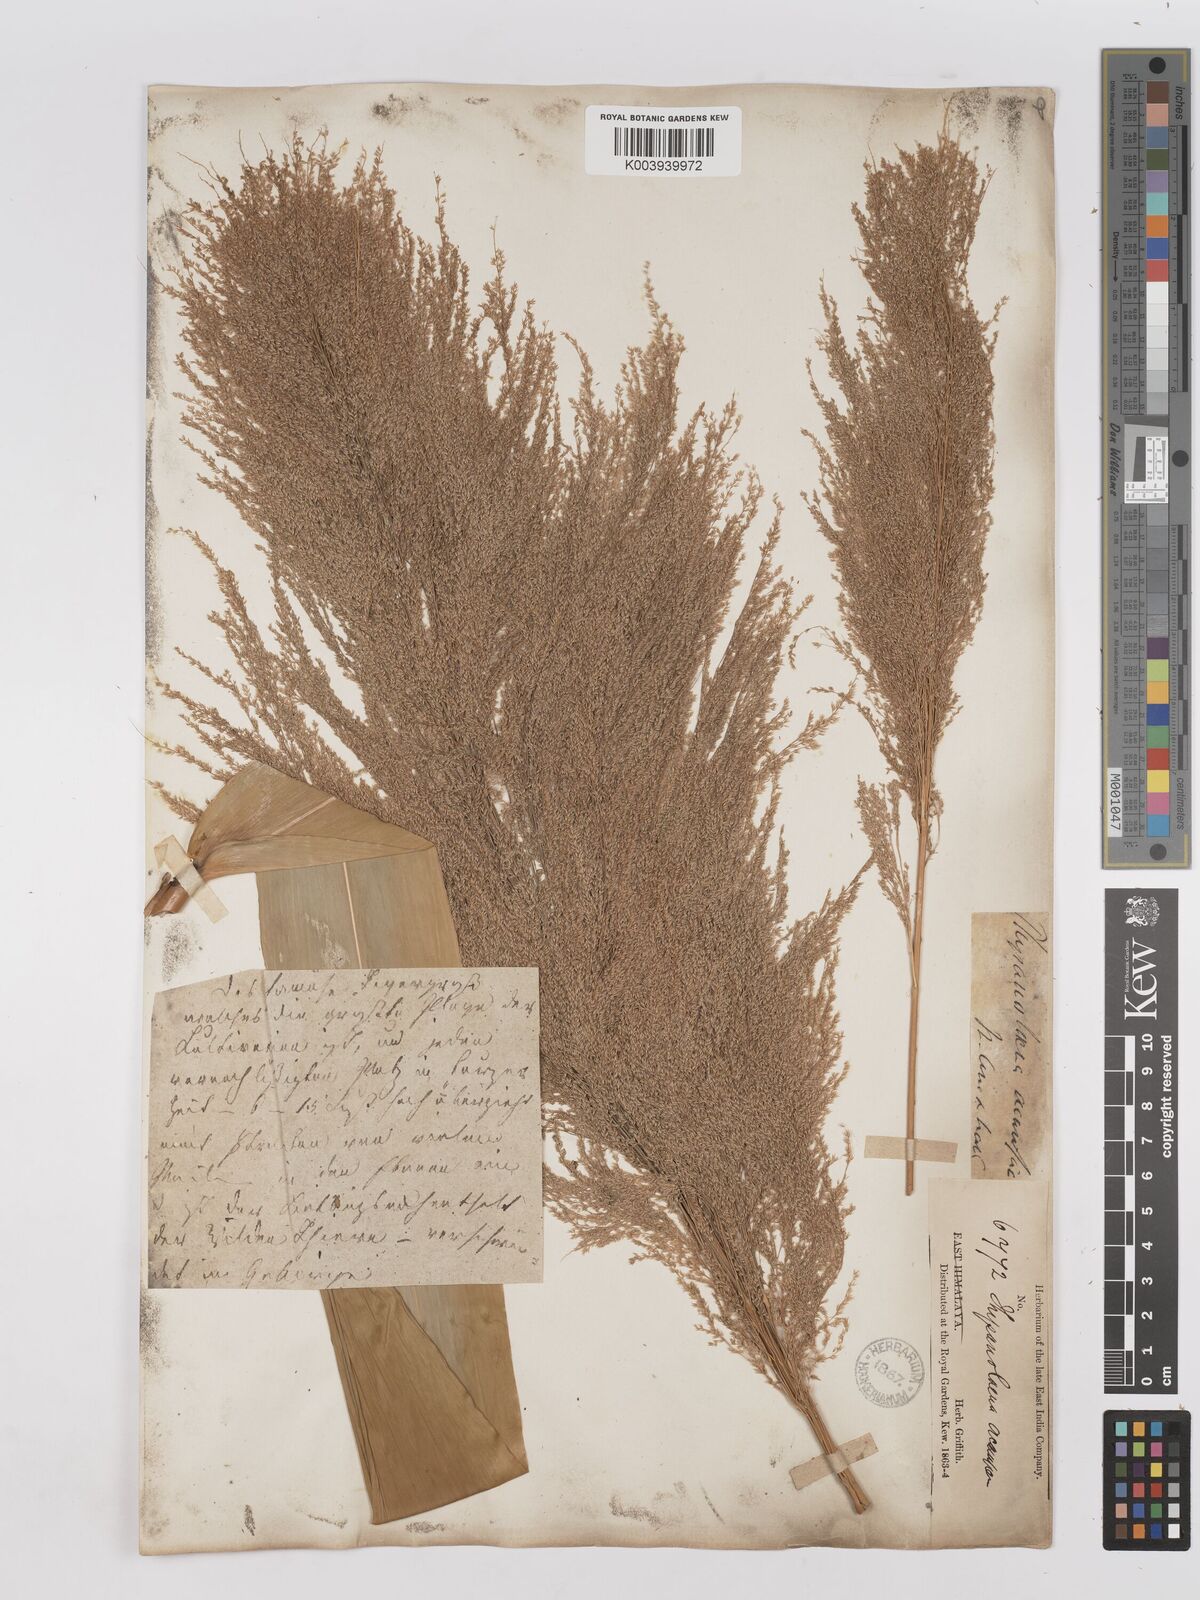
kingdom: Plantae
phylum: Tracheophyta
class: Liliopsida
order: Poales
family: Poaceae
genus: Thysanolaena
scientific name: Thysanolaena latifolia
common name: Tiger grass
